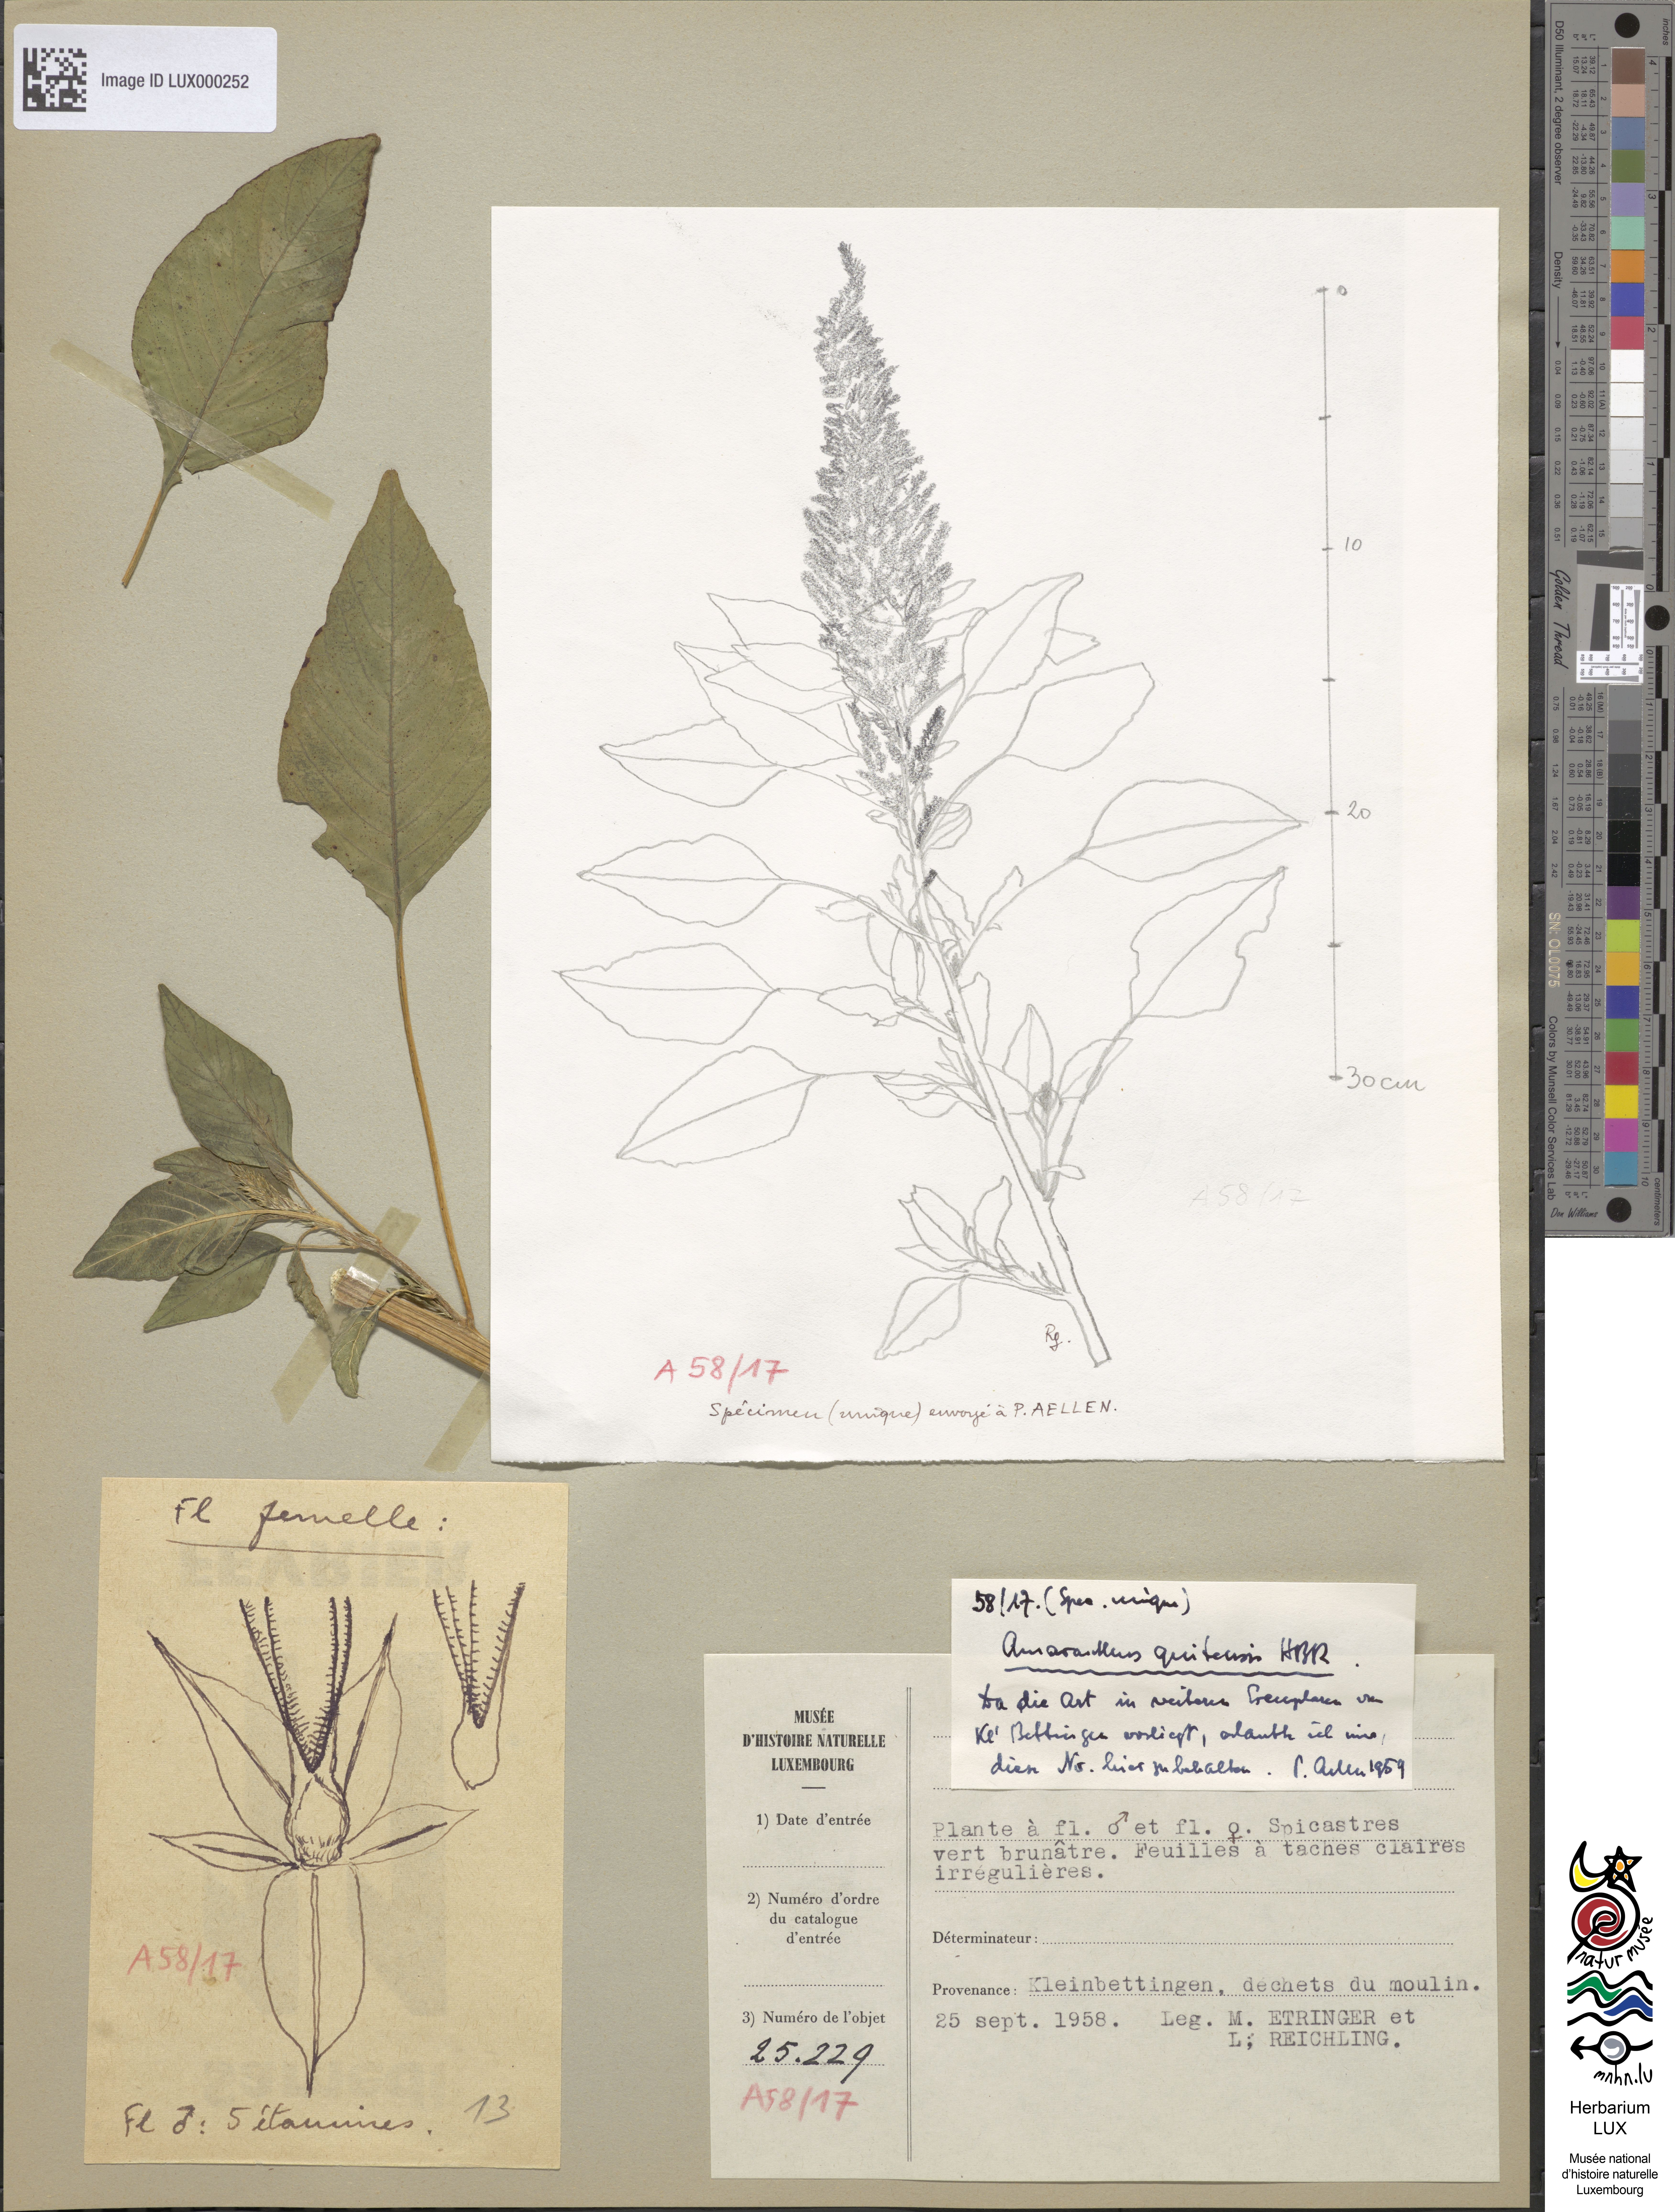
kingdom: Plantae
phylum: Tracheophyta
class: Magnoliopsida
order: Caryophyllales
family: Amaranthaceae
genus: Amaranthus
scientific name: Amaranthus quitensis
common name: Mucronate amaranth
